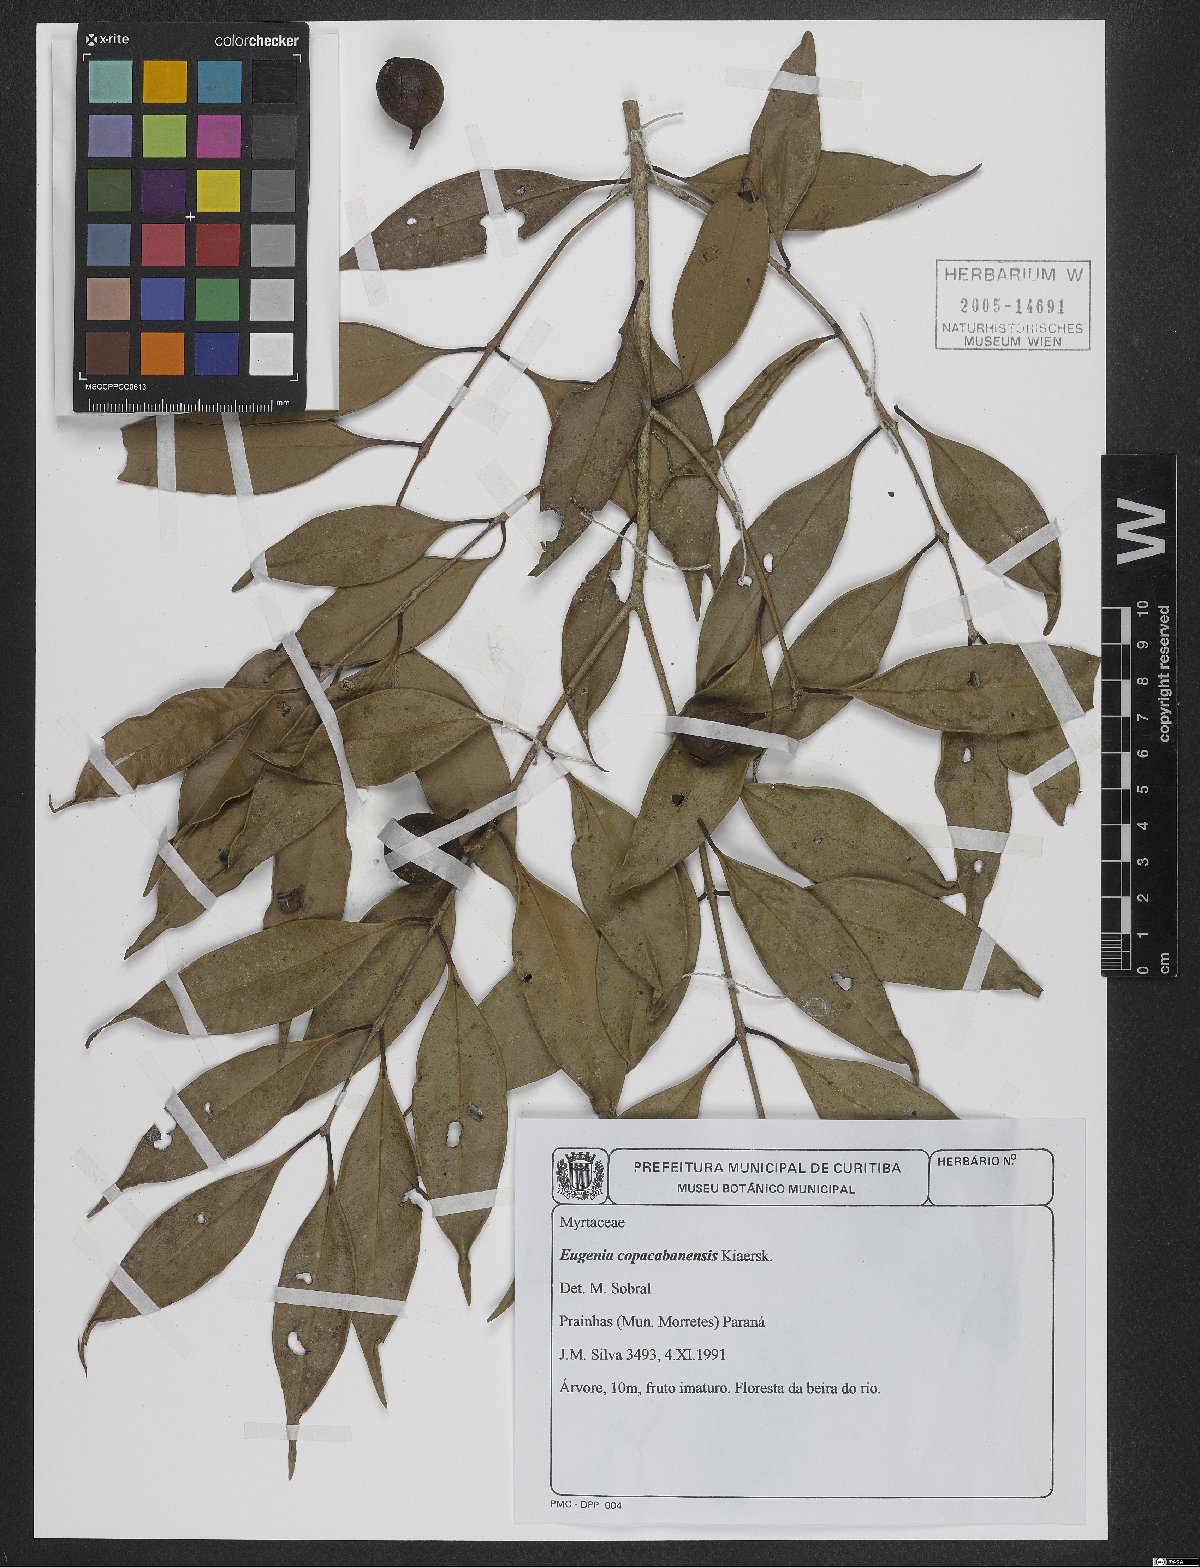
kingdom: Plantae
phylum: Tracheophyta
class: Magnoliopsida
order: Myrtales
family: Myrtaceae
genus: Eugenia
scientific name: Eugenia copacabanensis
